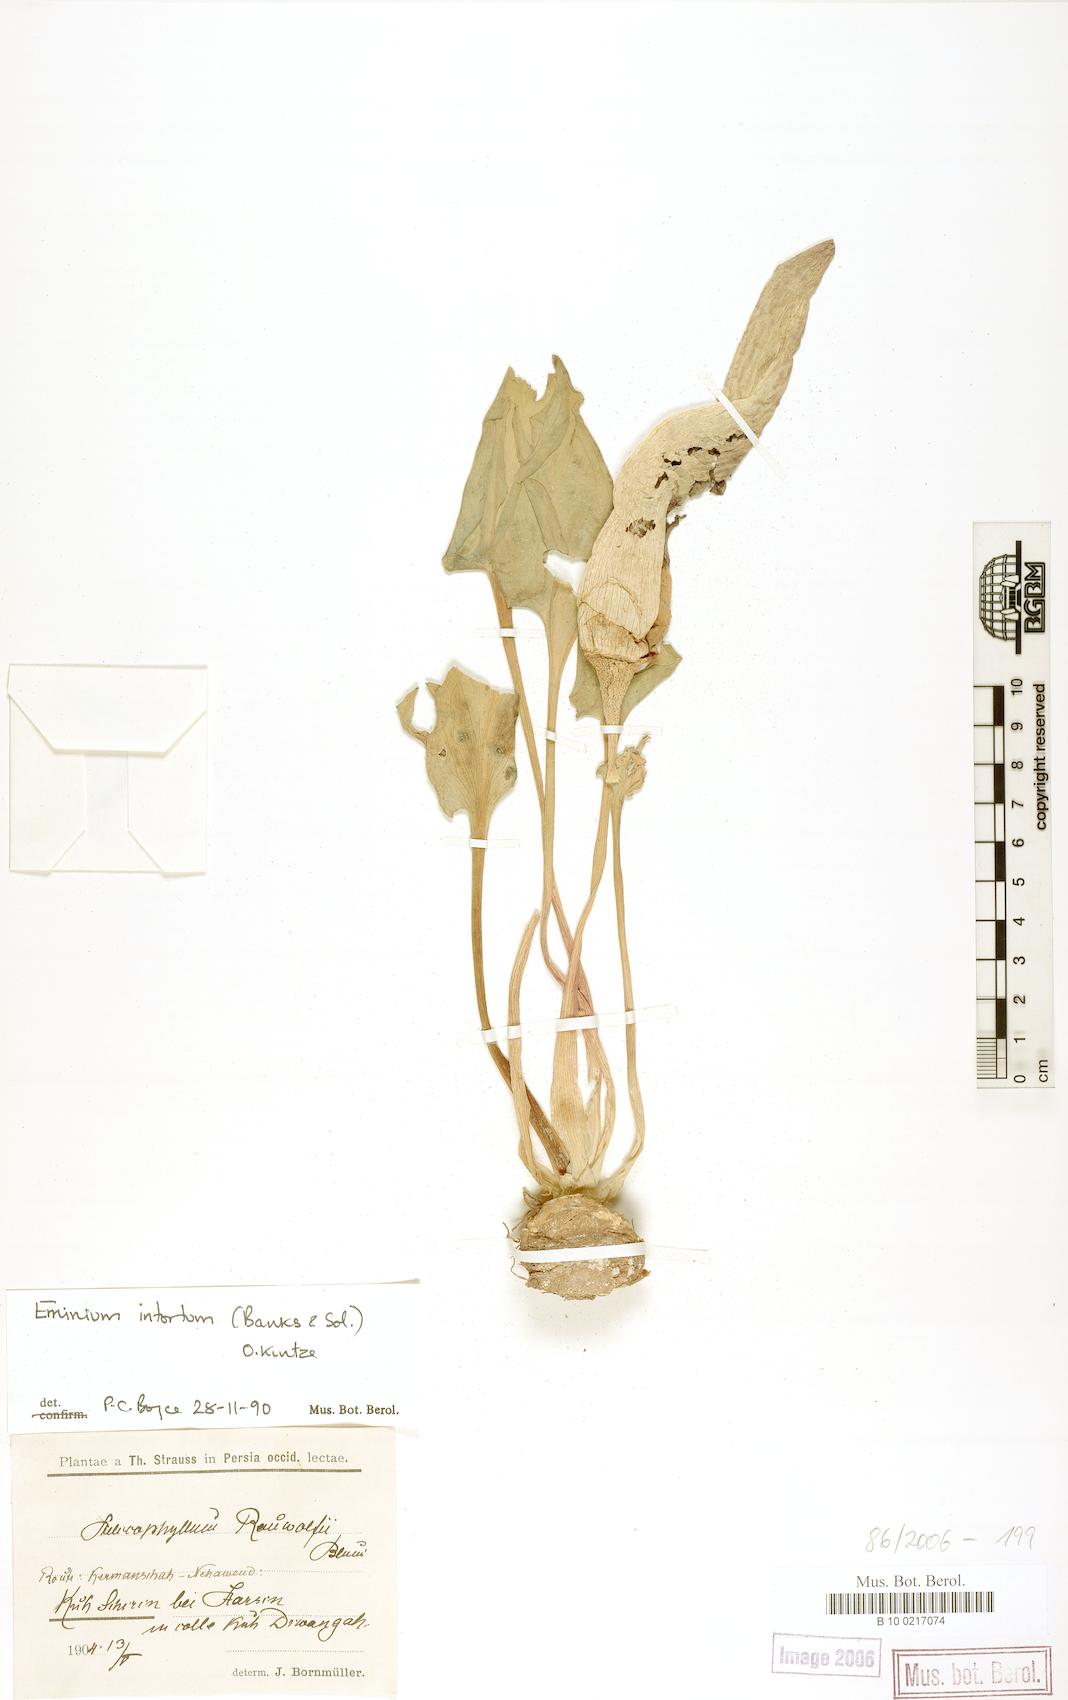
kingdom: Plantae
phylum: Tracheophyta
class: Liliopsida
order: Alismatales
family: Araceae
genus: Eminium
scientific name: Eminium intortum
